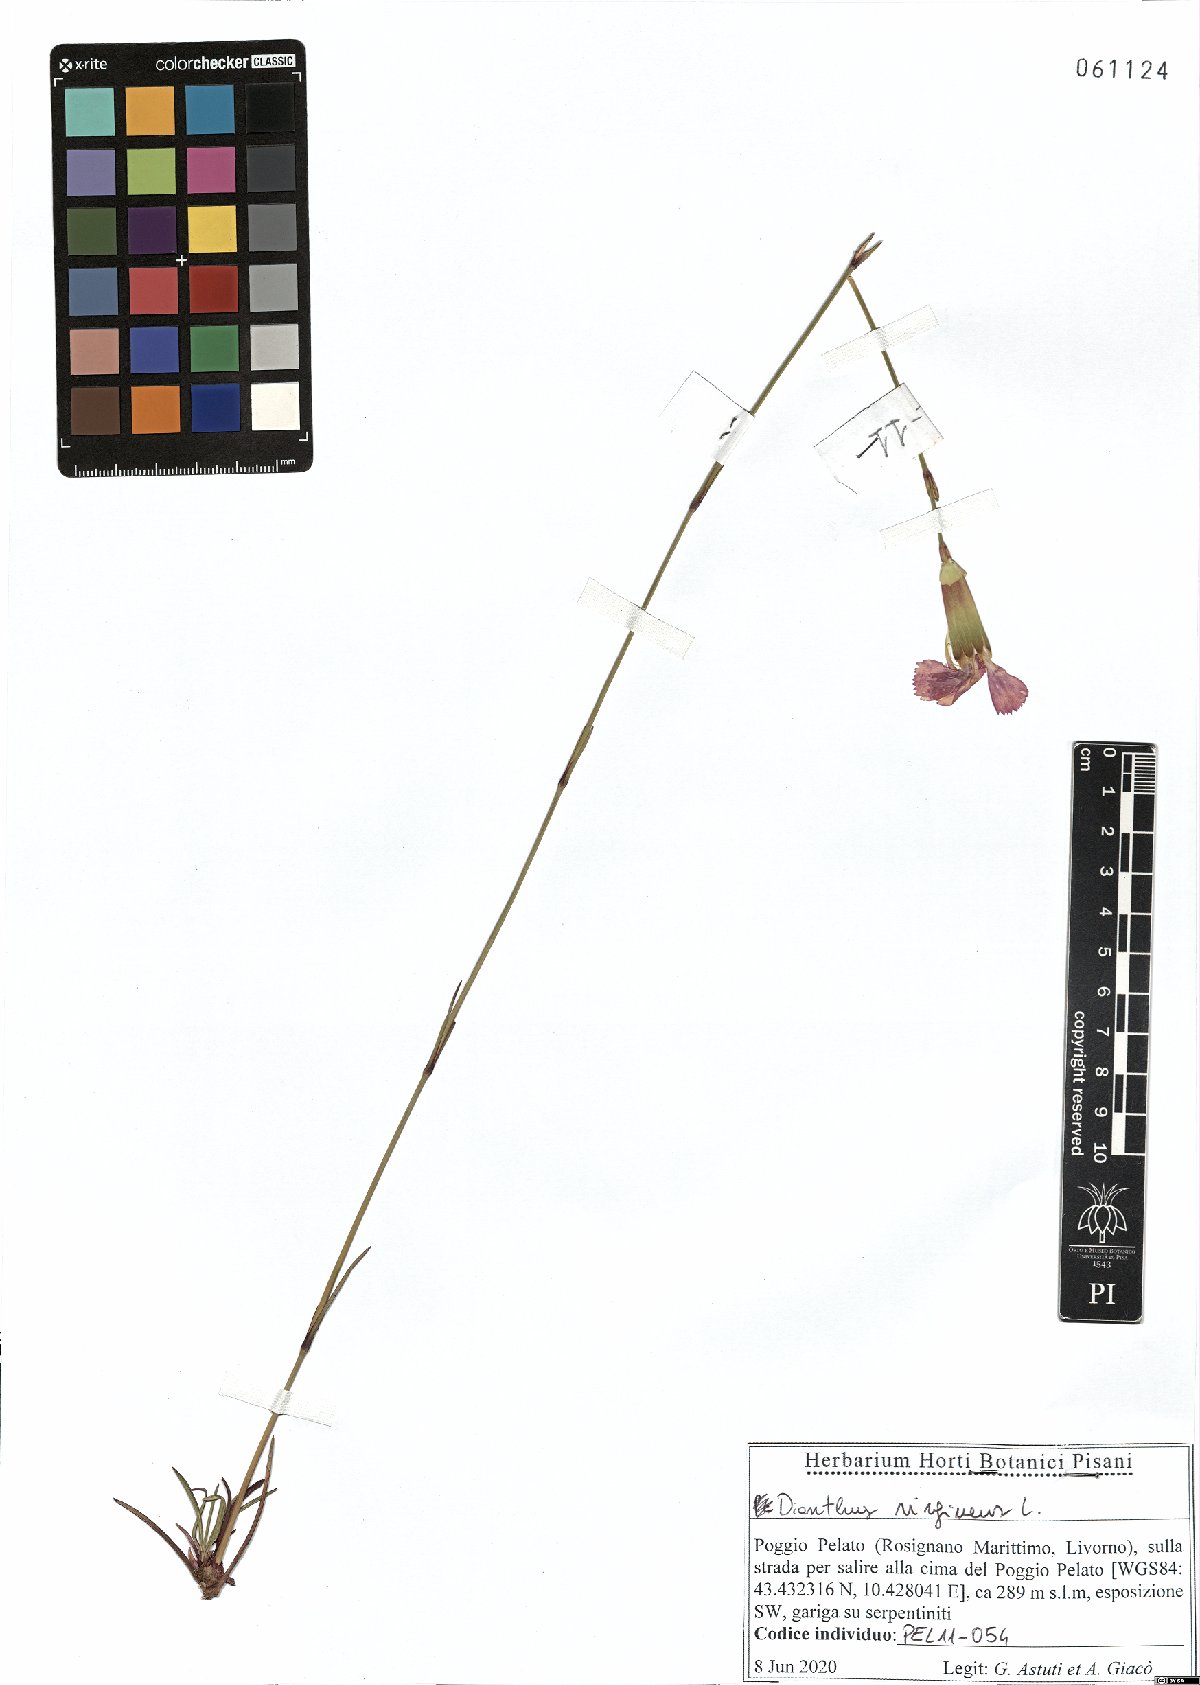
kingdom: Plantae
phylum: Tracheophyta
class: Magnoliopsida
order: Caryophyllales
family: Caryophyllaceae
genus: Dianthus
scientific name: Dianthus virgineus
